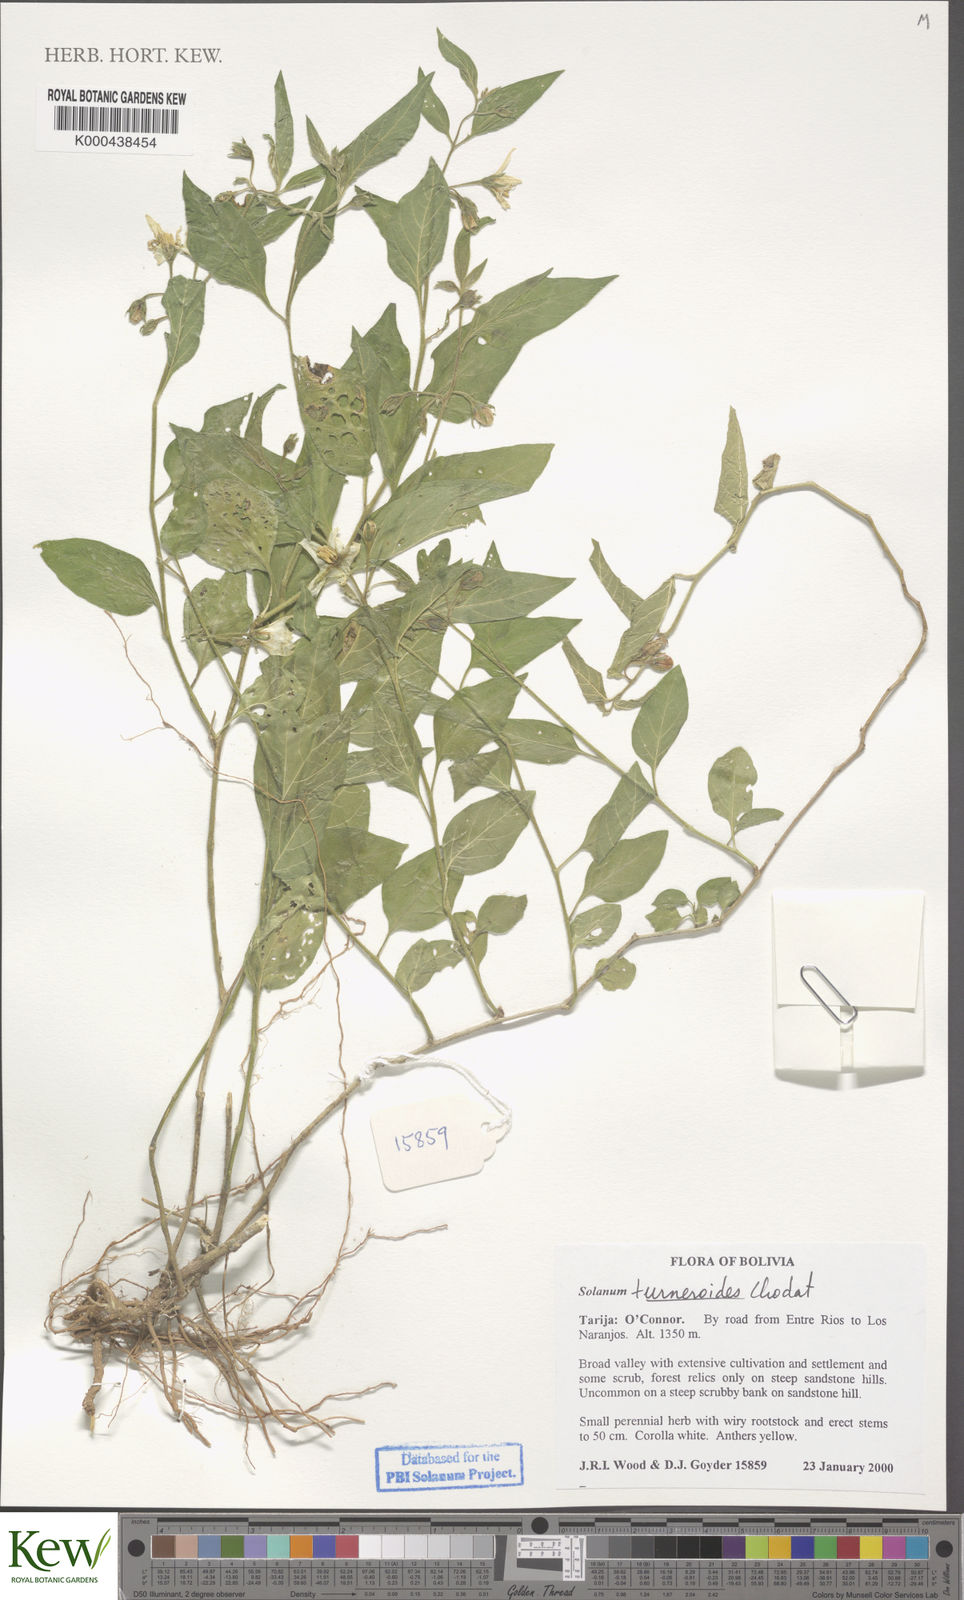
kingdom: Plantae
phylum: Tracheophyta
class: Magnoliopsida
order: Solanales
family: Solanaceae
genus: Solanum
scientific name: Solanum turneroides
